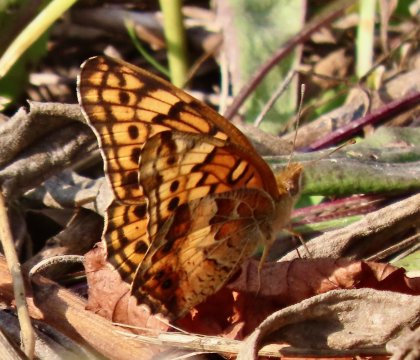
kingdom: Animalia
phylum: Arthropoda
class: Insecta
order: Lepidoptera
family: Nymphalidae
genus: Euptoieta
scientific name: Euptoieta claudia
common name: Variegated Fritillary
